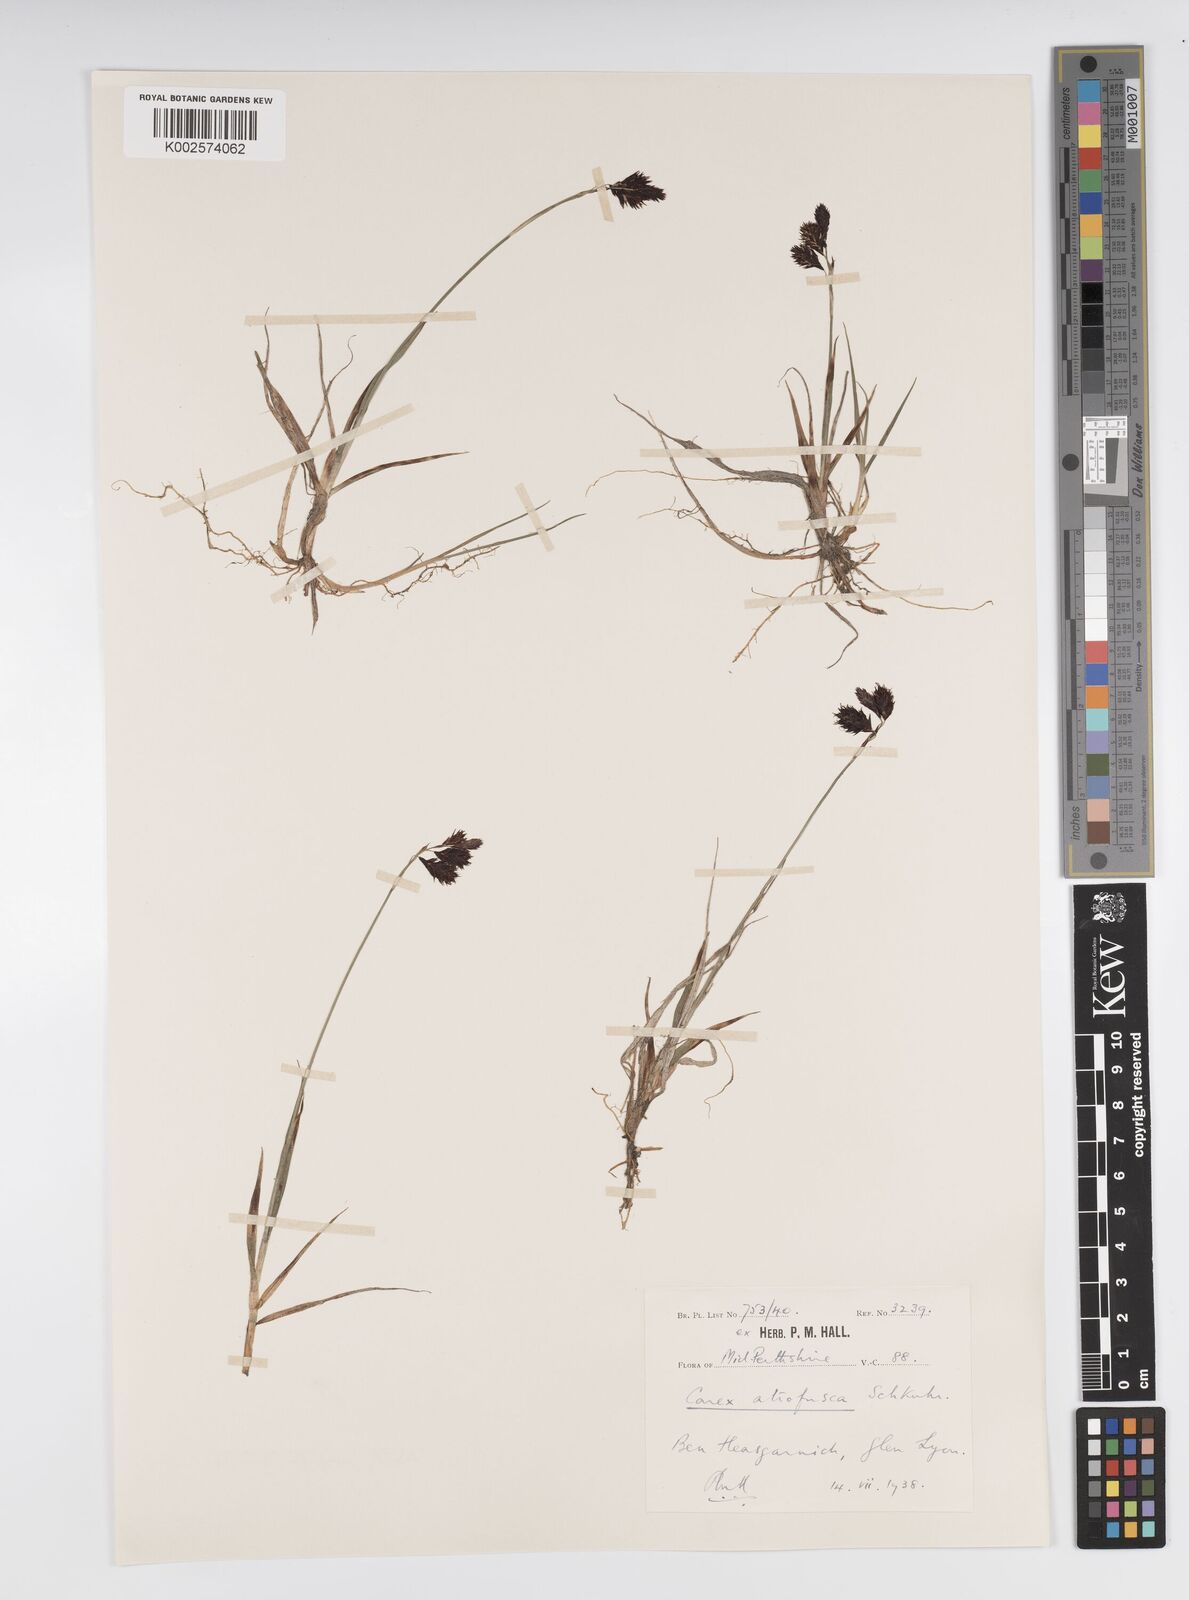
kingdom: Plantae
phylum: Tracheophyta
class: Liliopsida
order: Poales
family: Cyperaceae
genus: Carex
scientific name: Carex atrofusca
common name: Scorched alpine-sedge
